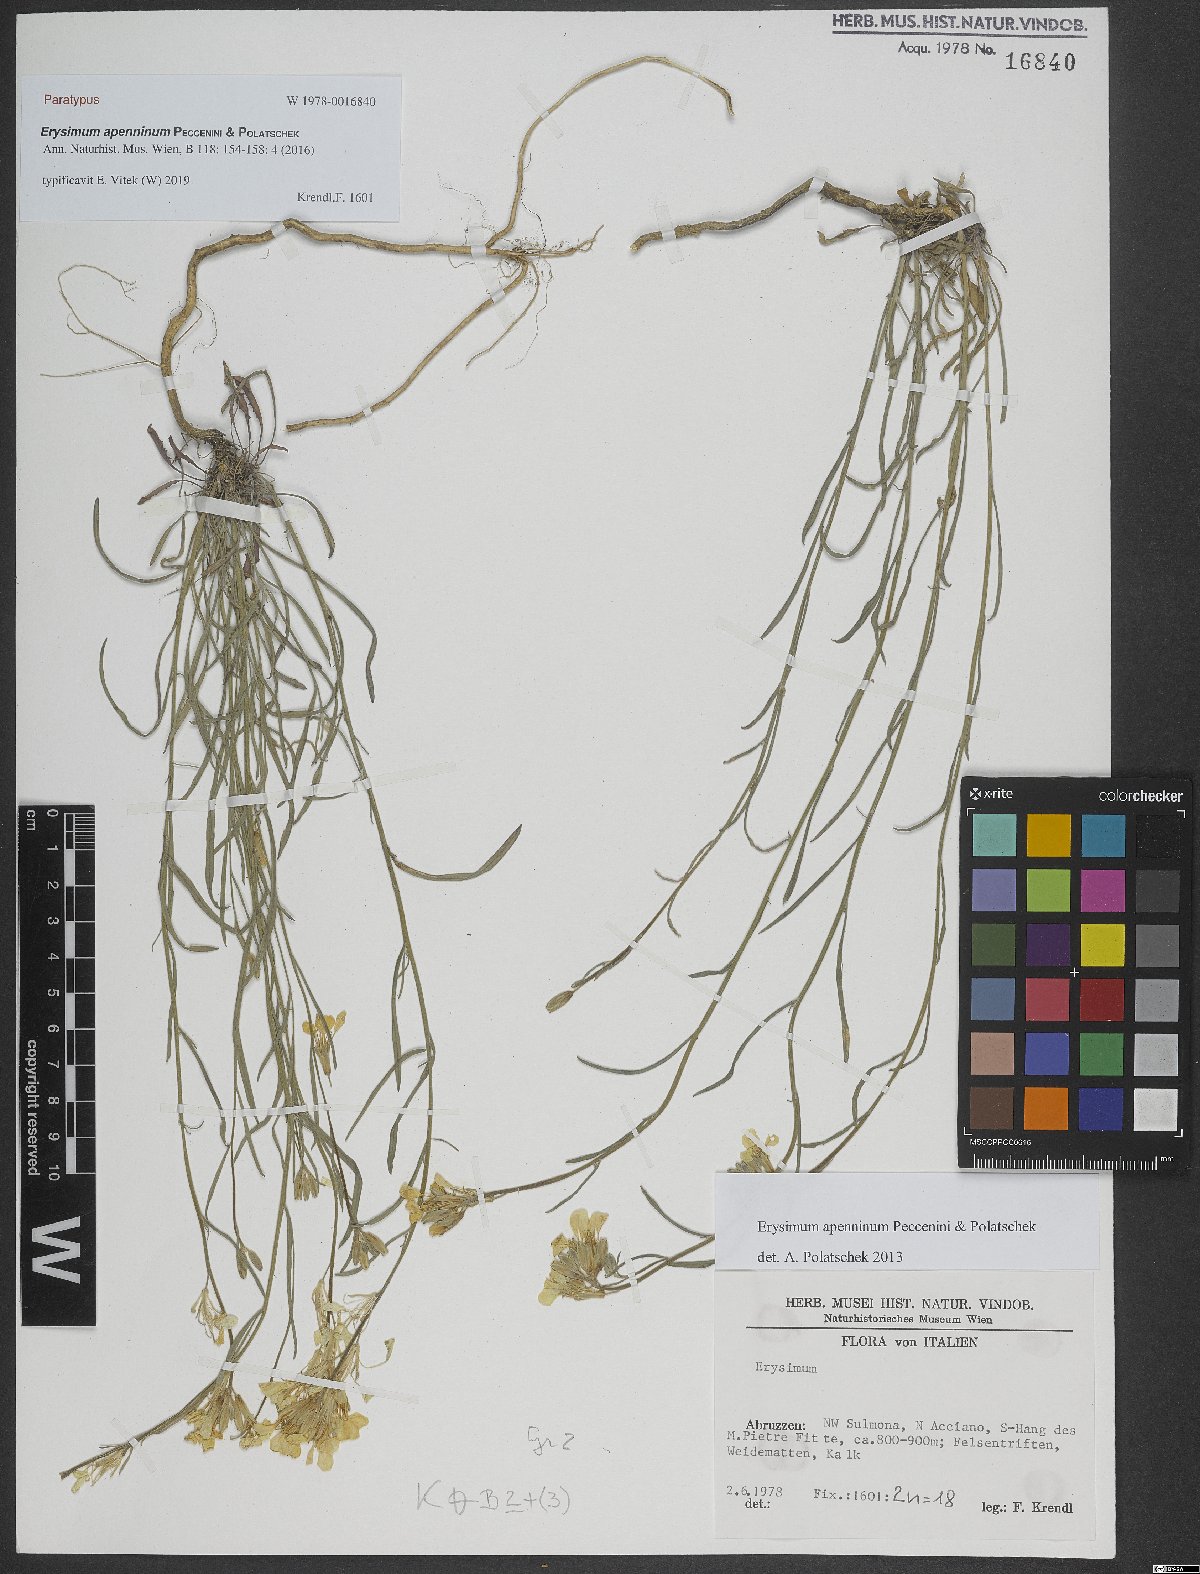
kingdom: Plantae
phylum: Tracheophyta
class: Magnoliopsida
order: Brassicales
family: Brassicaceae
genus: Erysimum
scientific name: Erysimum apenninum
